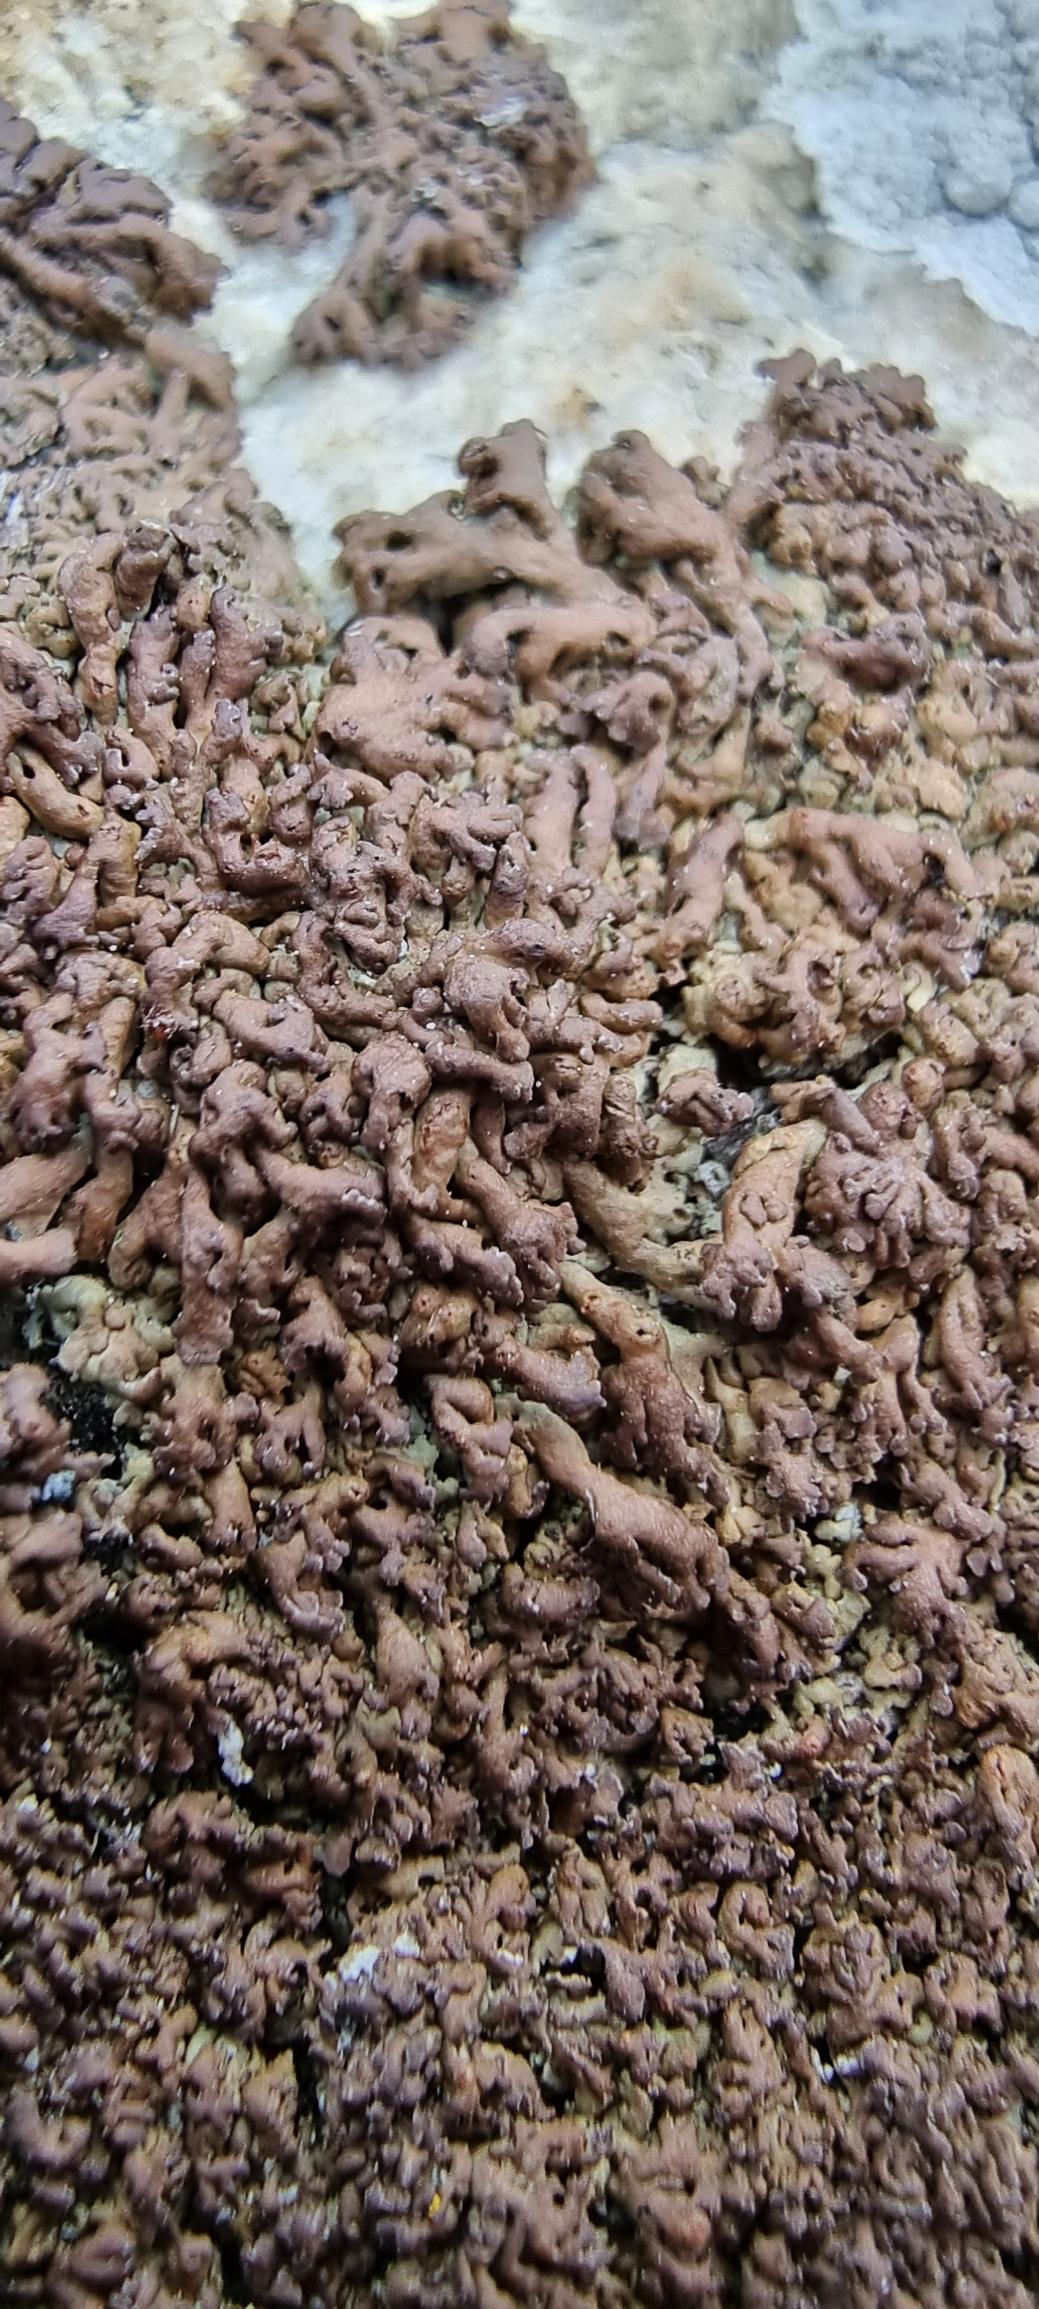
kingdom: Fungi
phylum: Ascomycota
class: Lecanoromycetes
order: Caliciales
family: Physciaceae
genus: Kurokawia
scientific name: Kurokawia runcinata
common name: Brun frynselav
